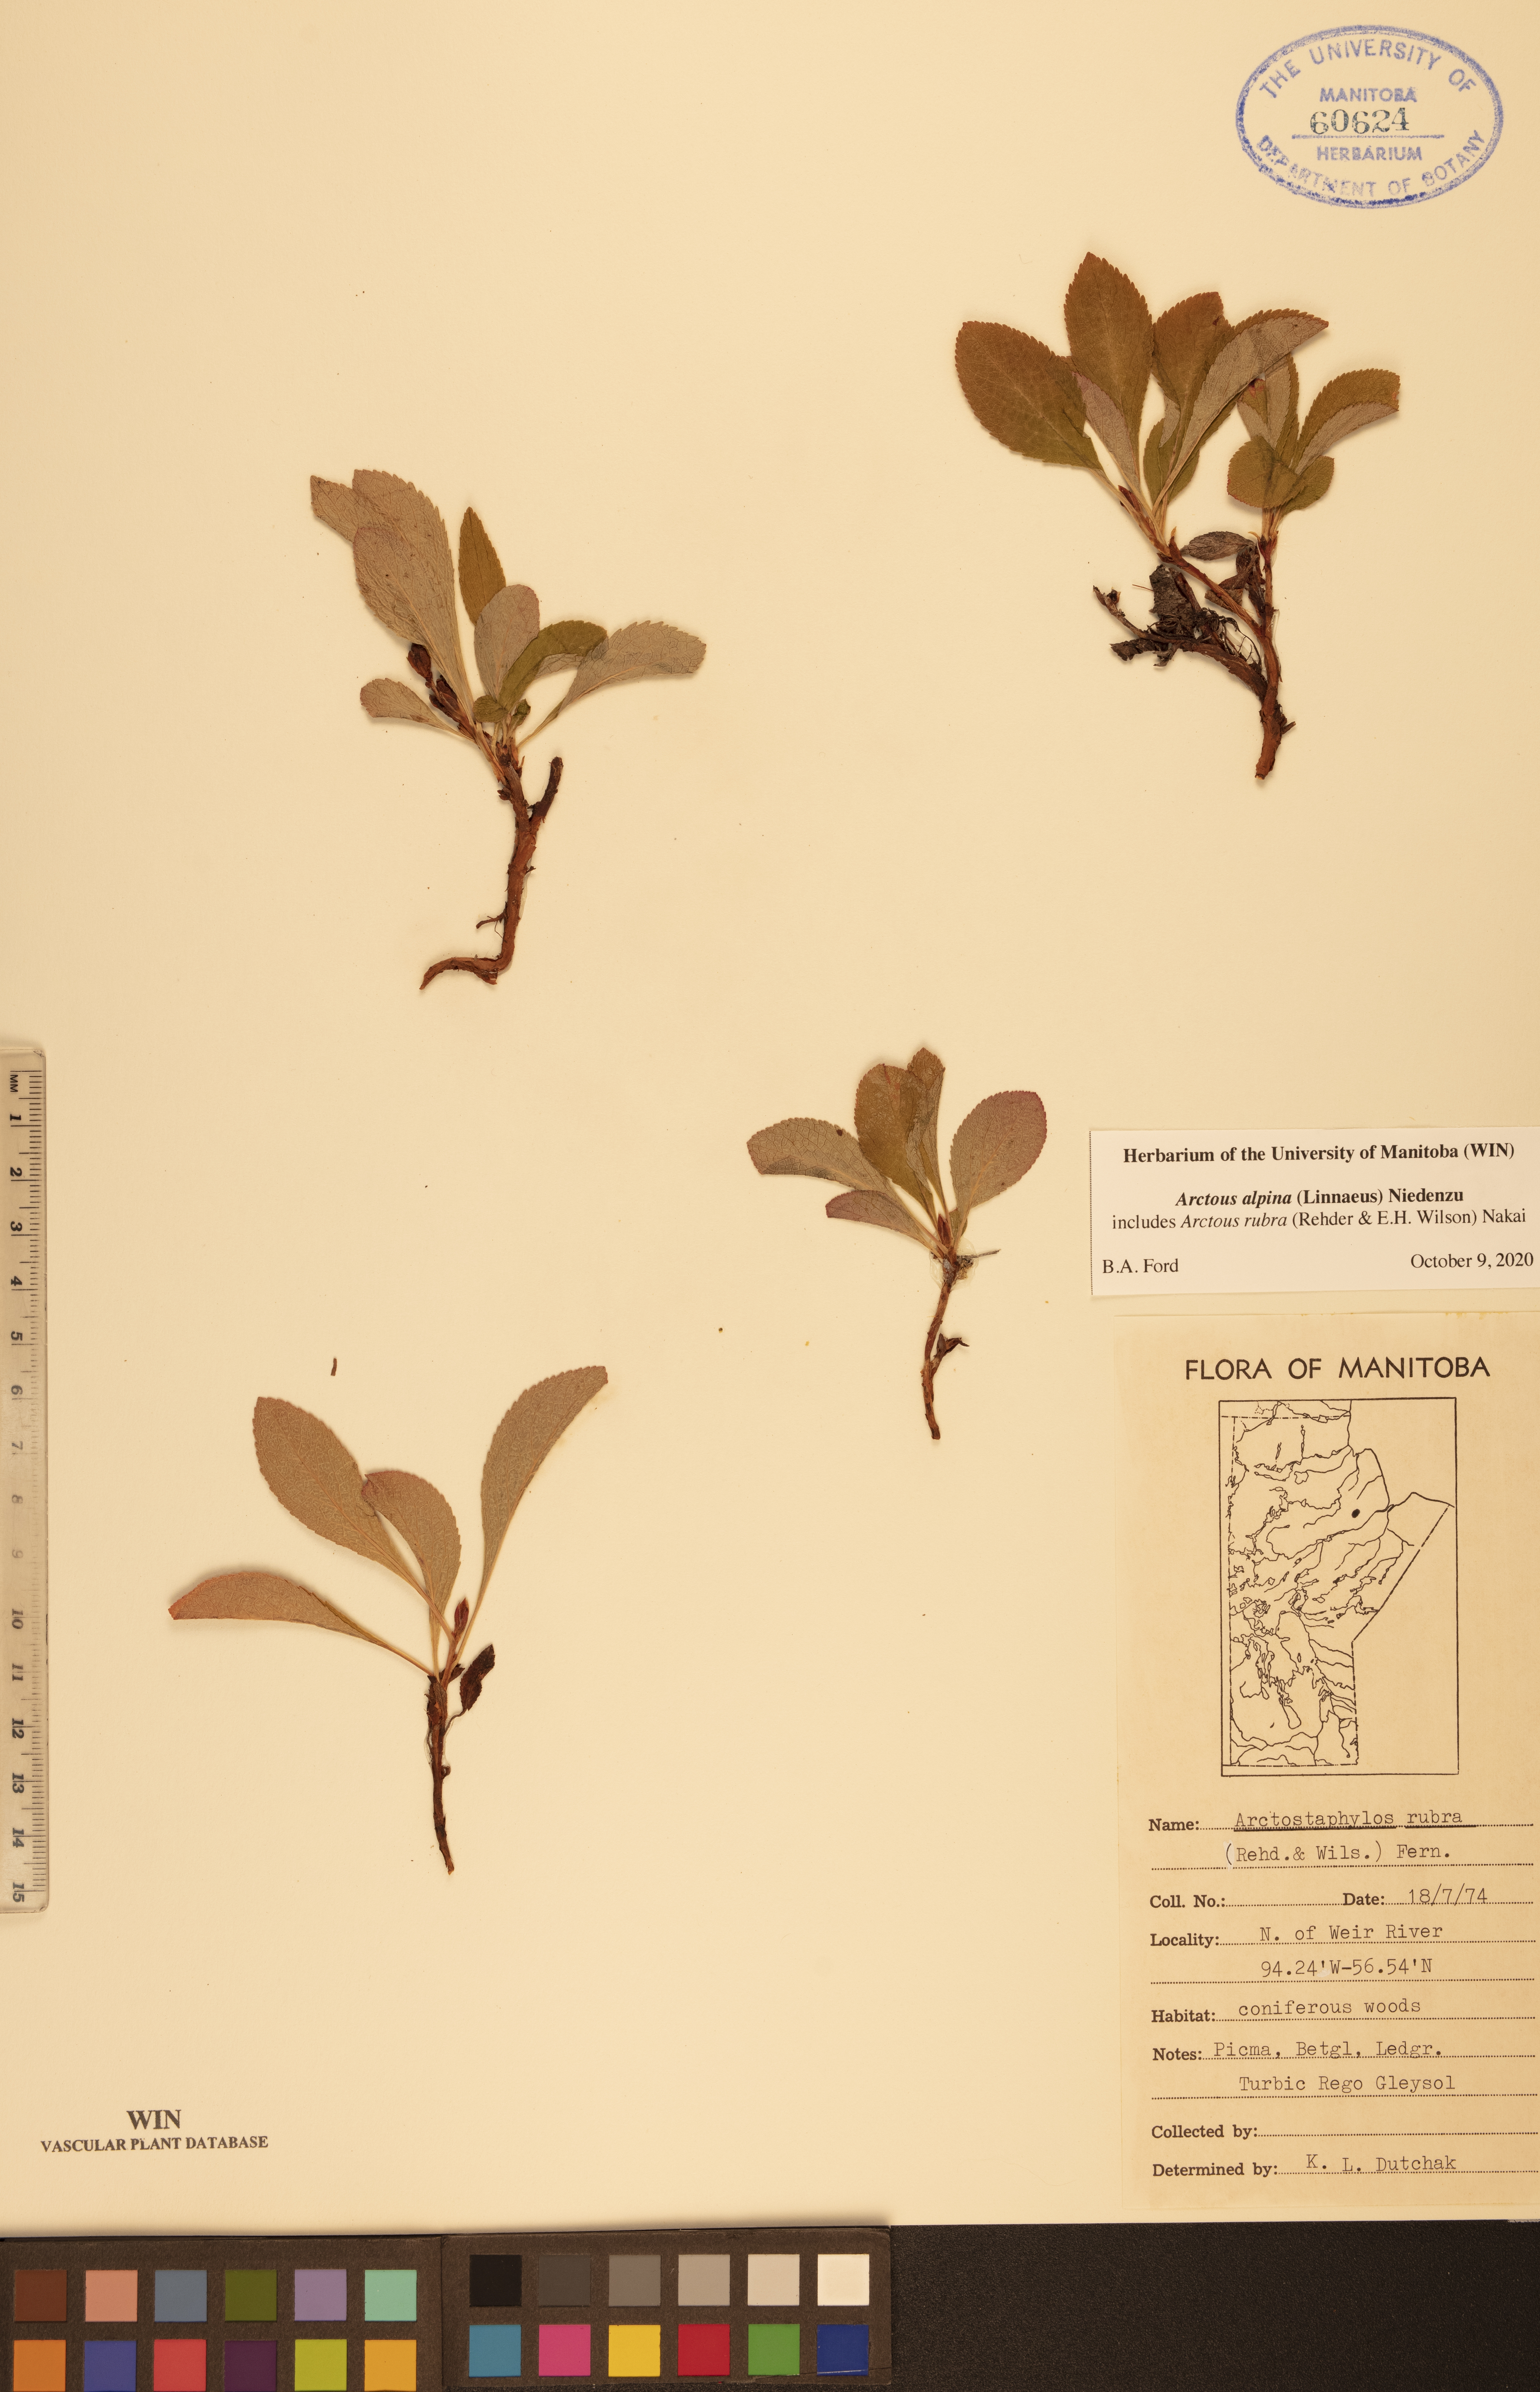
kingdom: Plantae
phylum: Tracheophyta
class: Magnoliopsida
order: Ericales
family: Ericaceae
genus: Arctostaphylos
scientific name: Arctostaphylos alpinus
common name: Alpine bearberry
